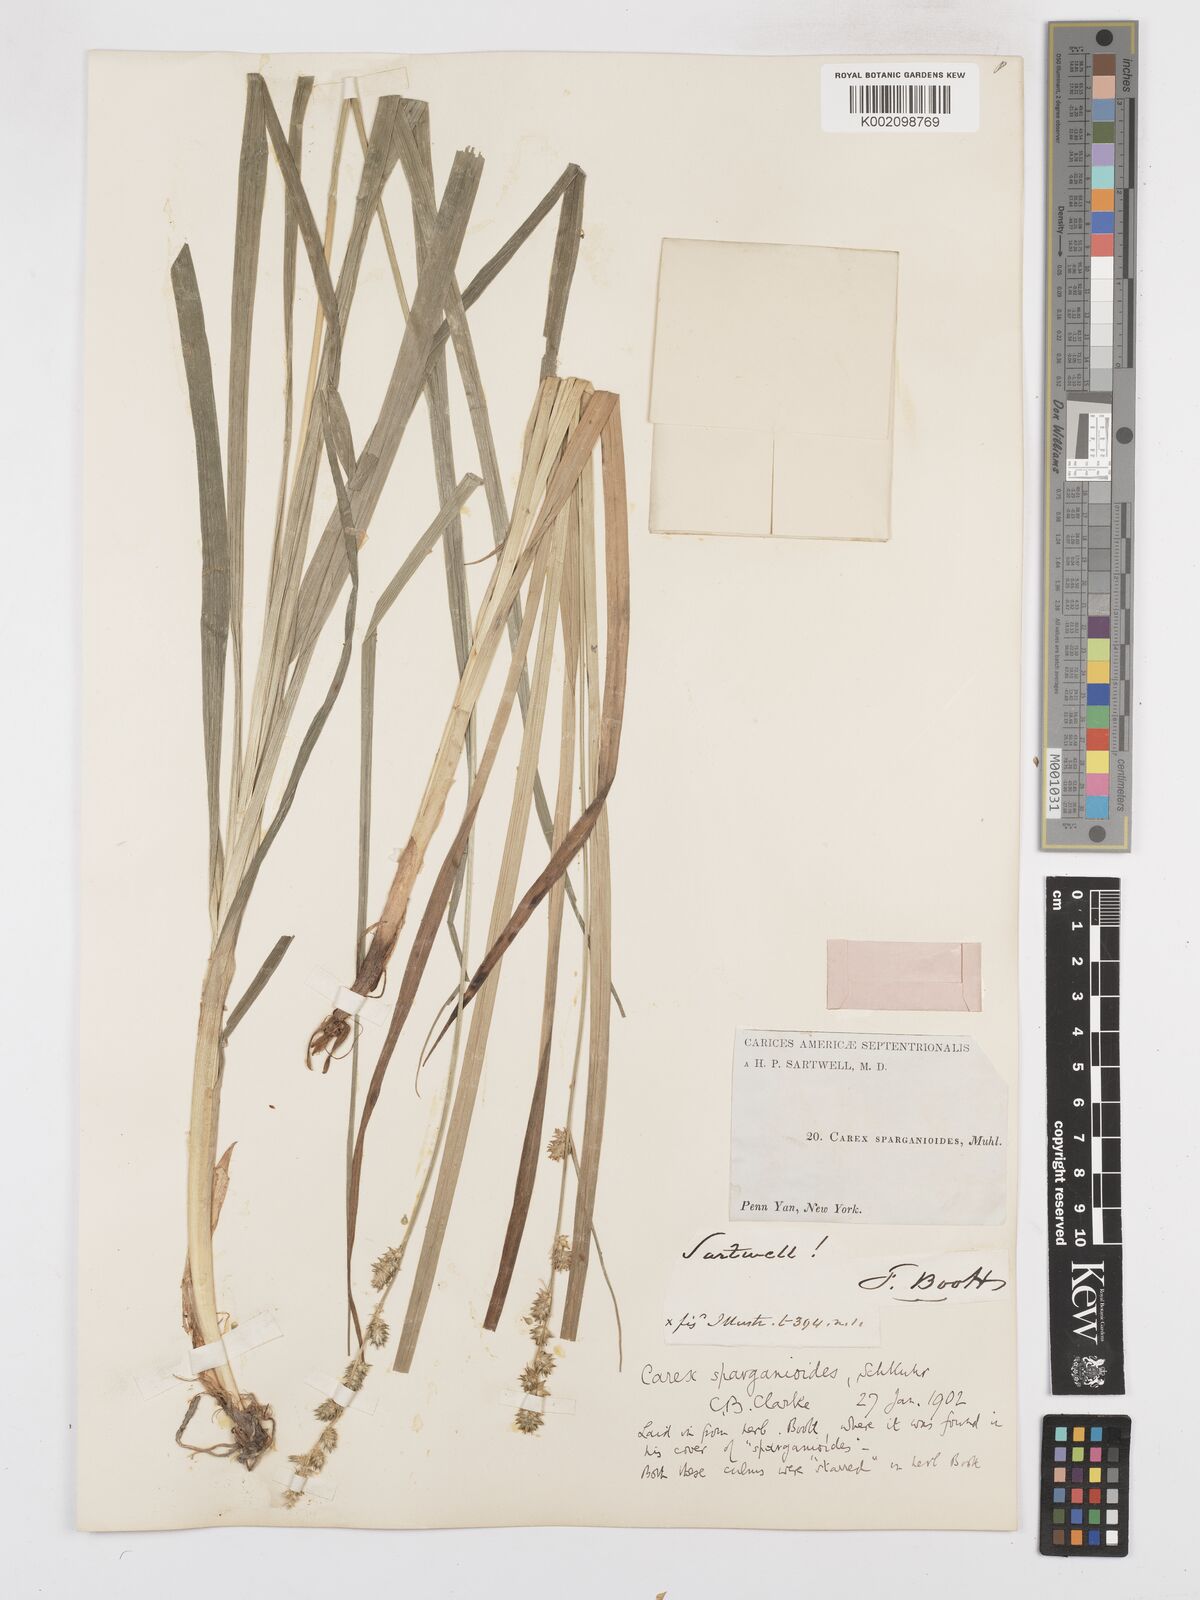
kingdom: Plantae
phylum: Tracheophyta
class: Liliopsida
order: Poales
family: Cyperaceae
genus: Carex
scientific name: Carex sparganioides
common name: Burreed sedge
